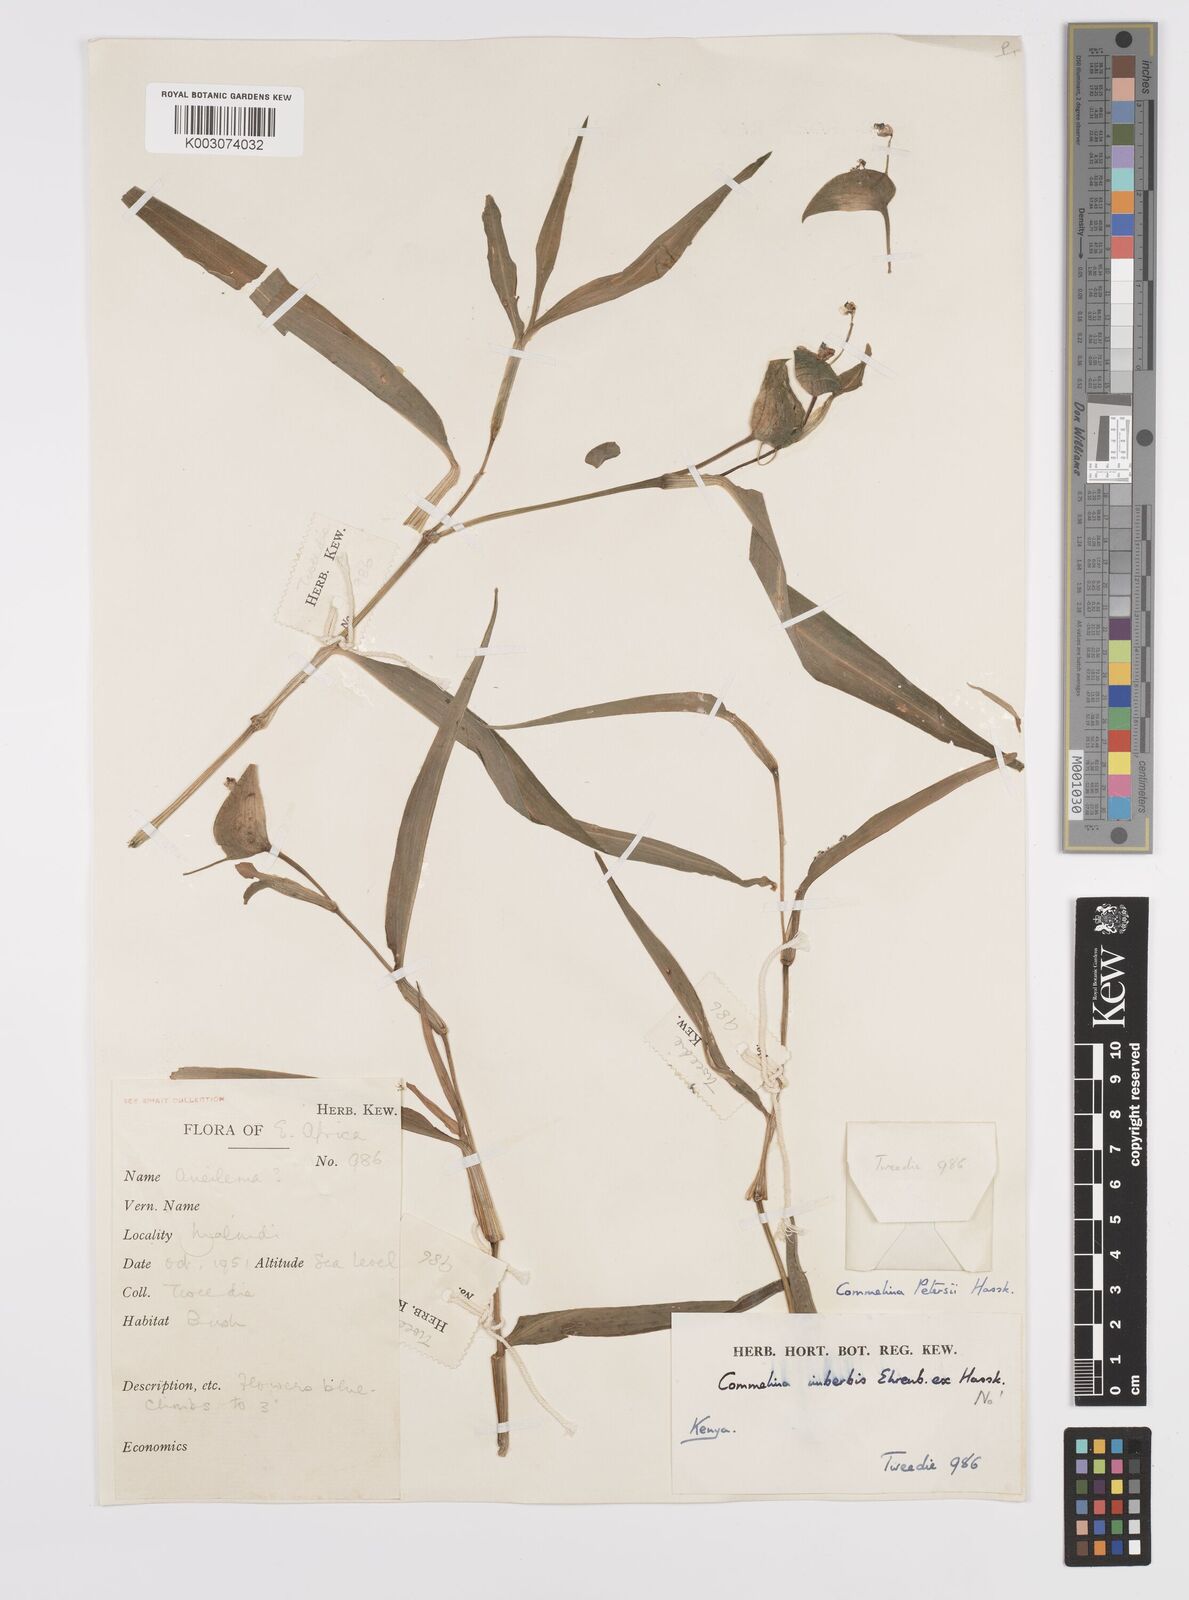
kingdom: Plantae
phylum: Tracheophyta
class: Liliopsida
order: Commelinales
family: Commelinaceae
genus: Commelina
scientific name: Commelina petersii
